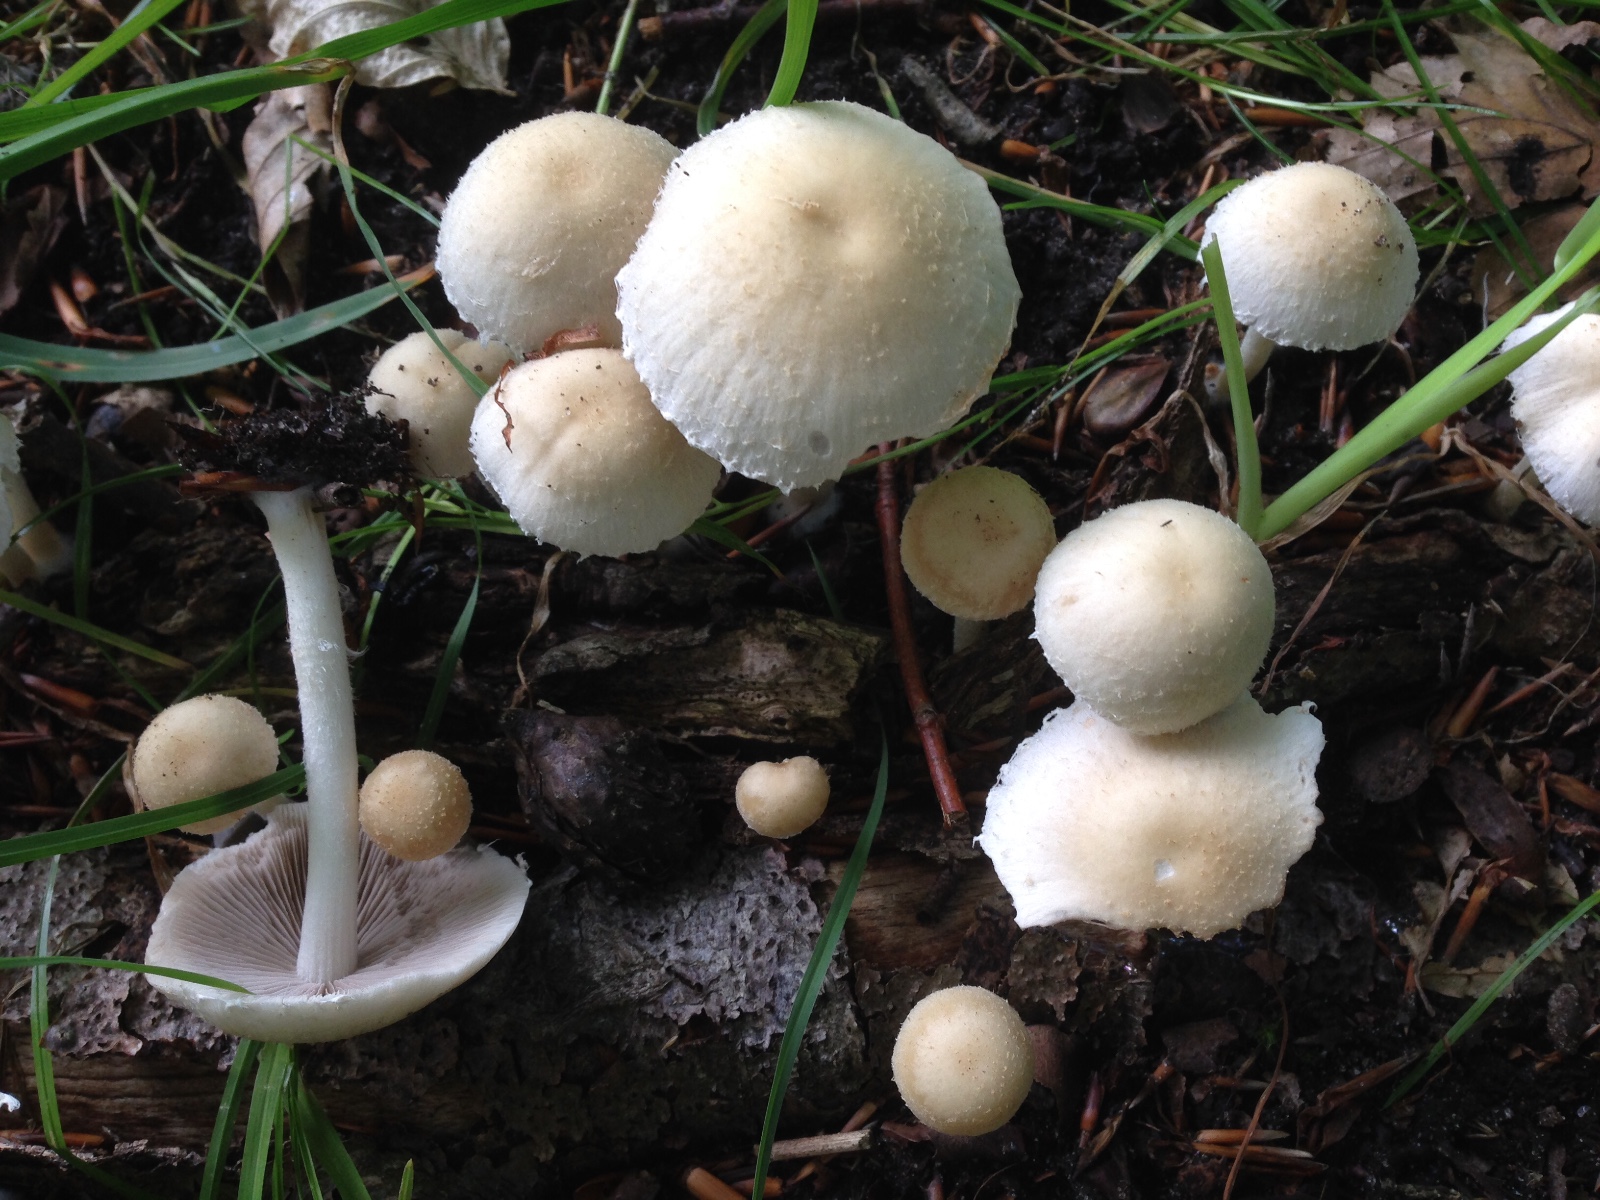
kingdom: Fungi
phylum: Basidiomycota
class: Agaricomycetes
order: Agaricales
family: Psathyrellaceae
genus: Candolleomyces
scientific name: Candolleomyces candolleanus
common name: Candolles mørkhat
